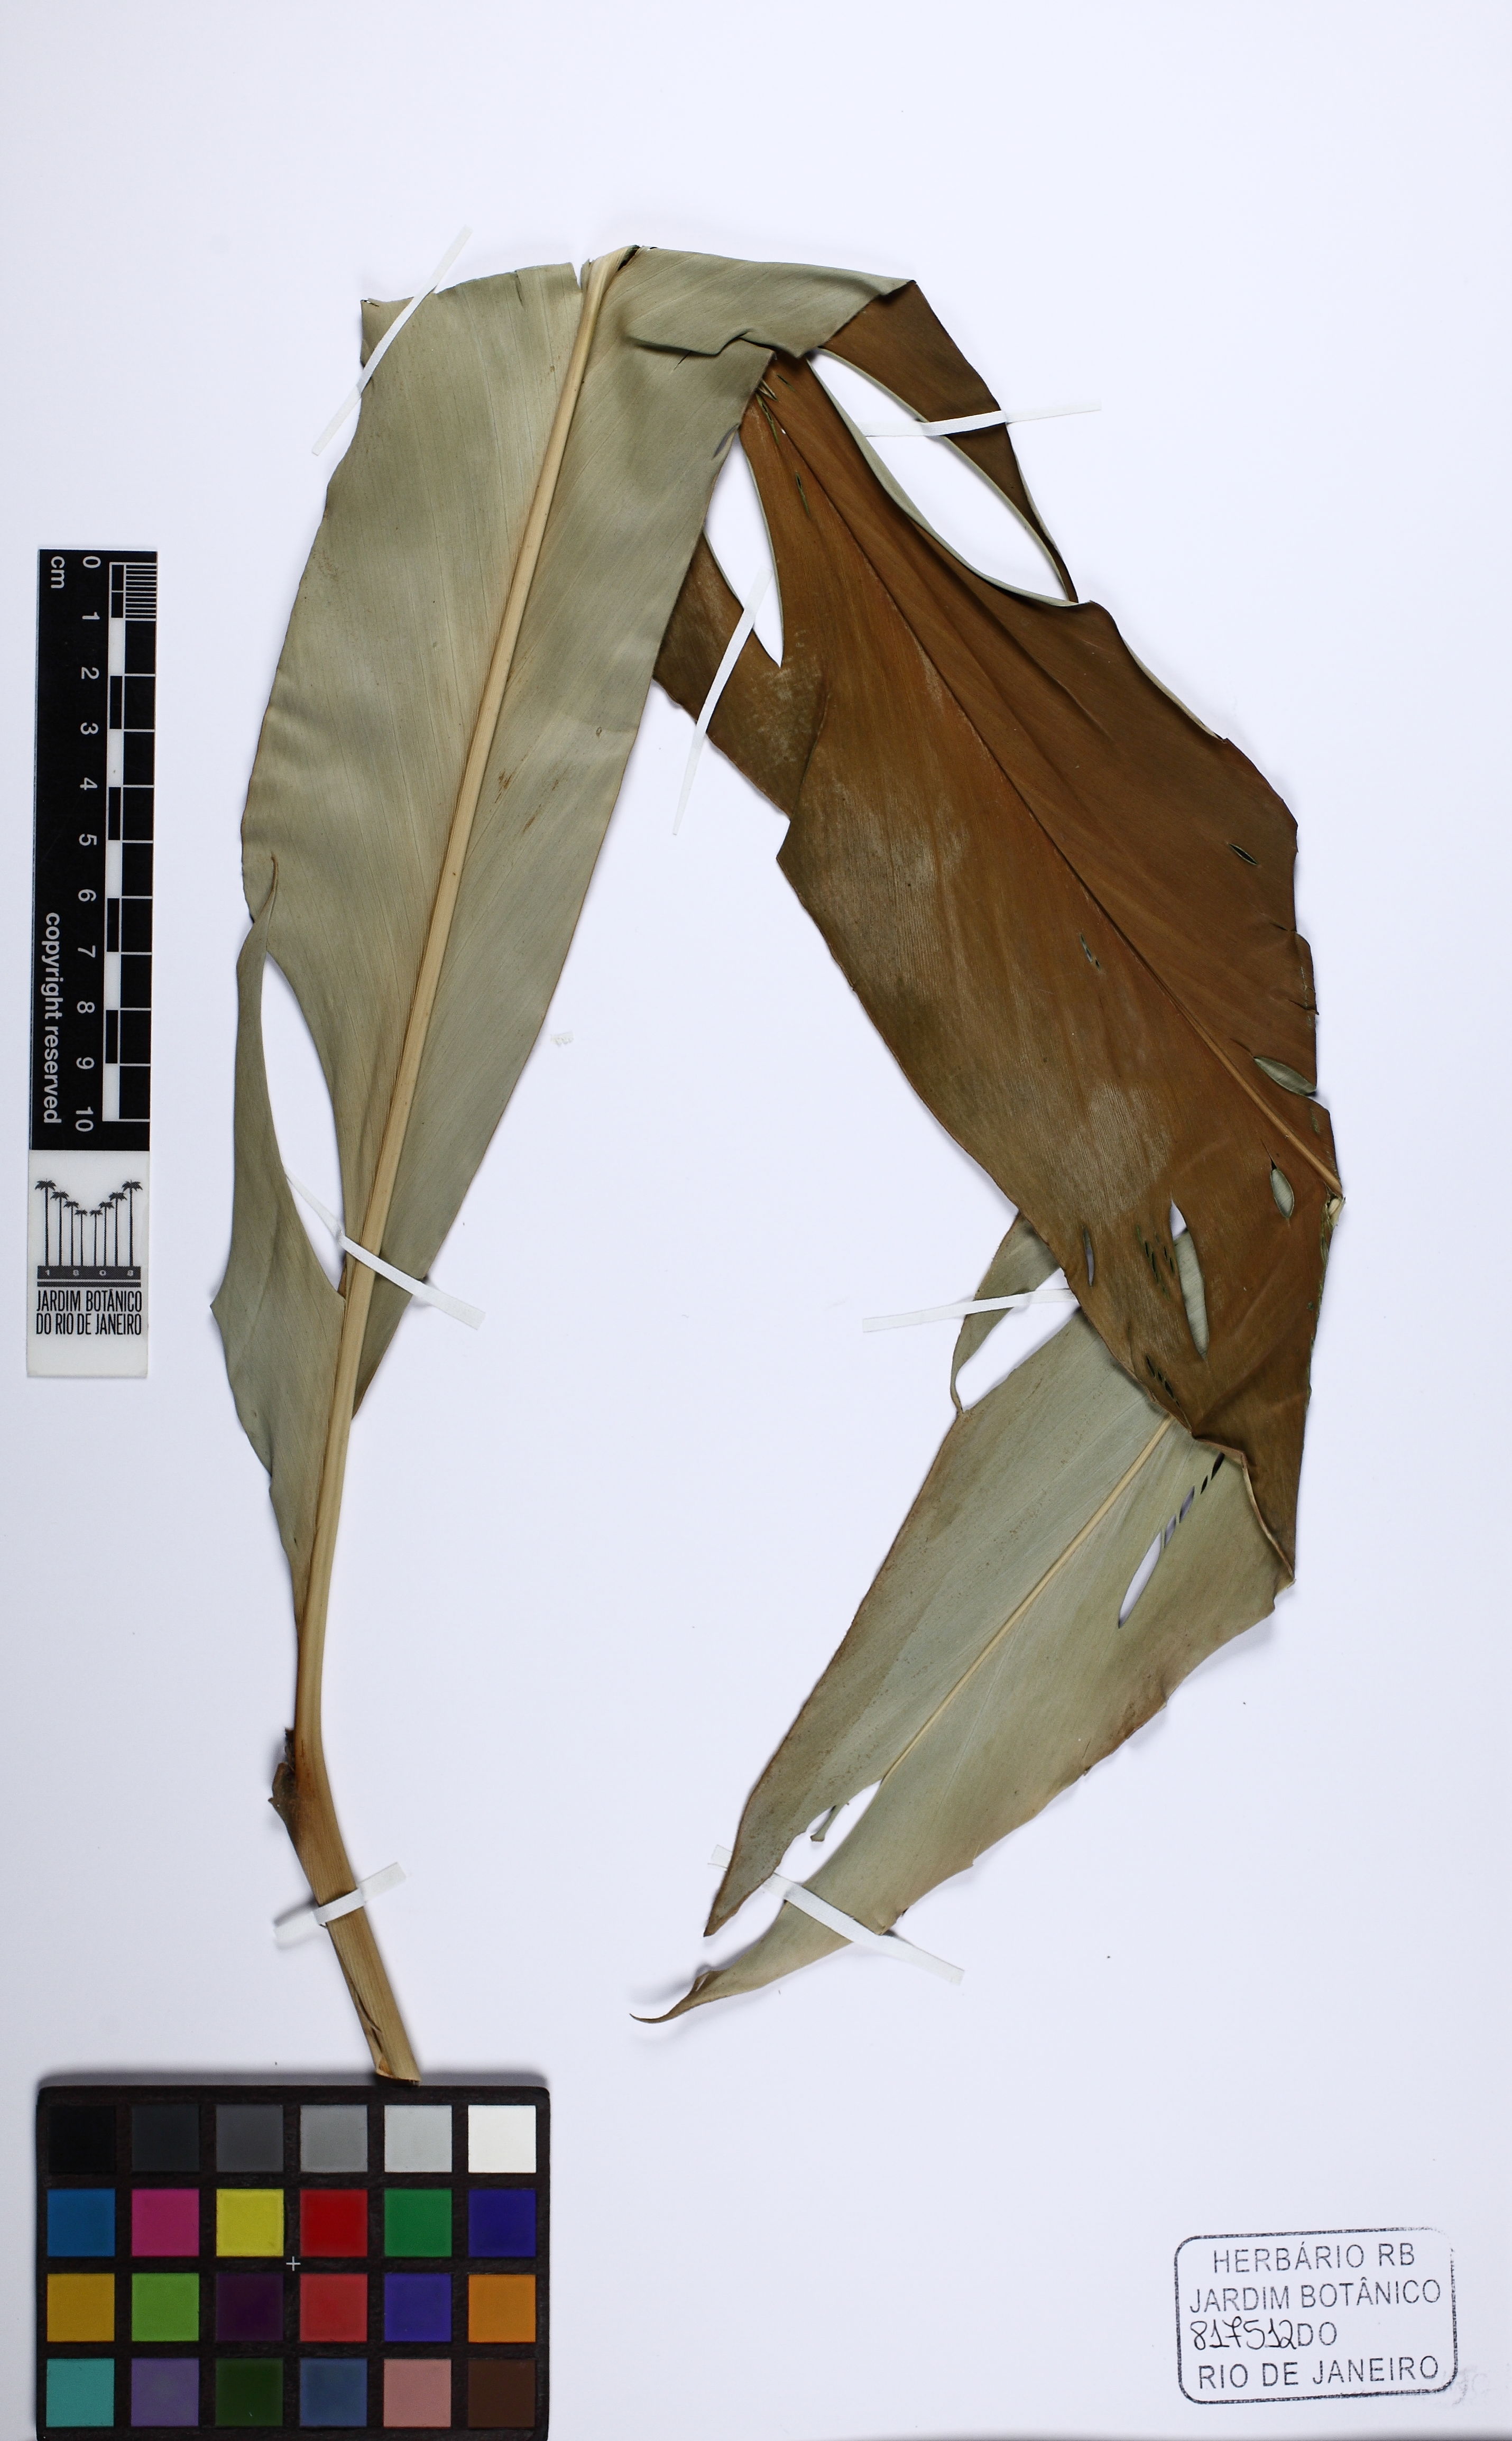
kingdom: Plantae
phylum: Tracheophyta
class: Liliopsida
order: Zingiberales
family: Zingiberaceae
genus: Alpinia
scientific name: Alpinia uraiensis
